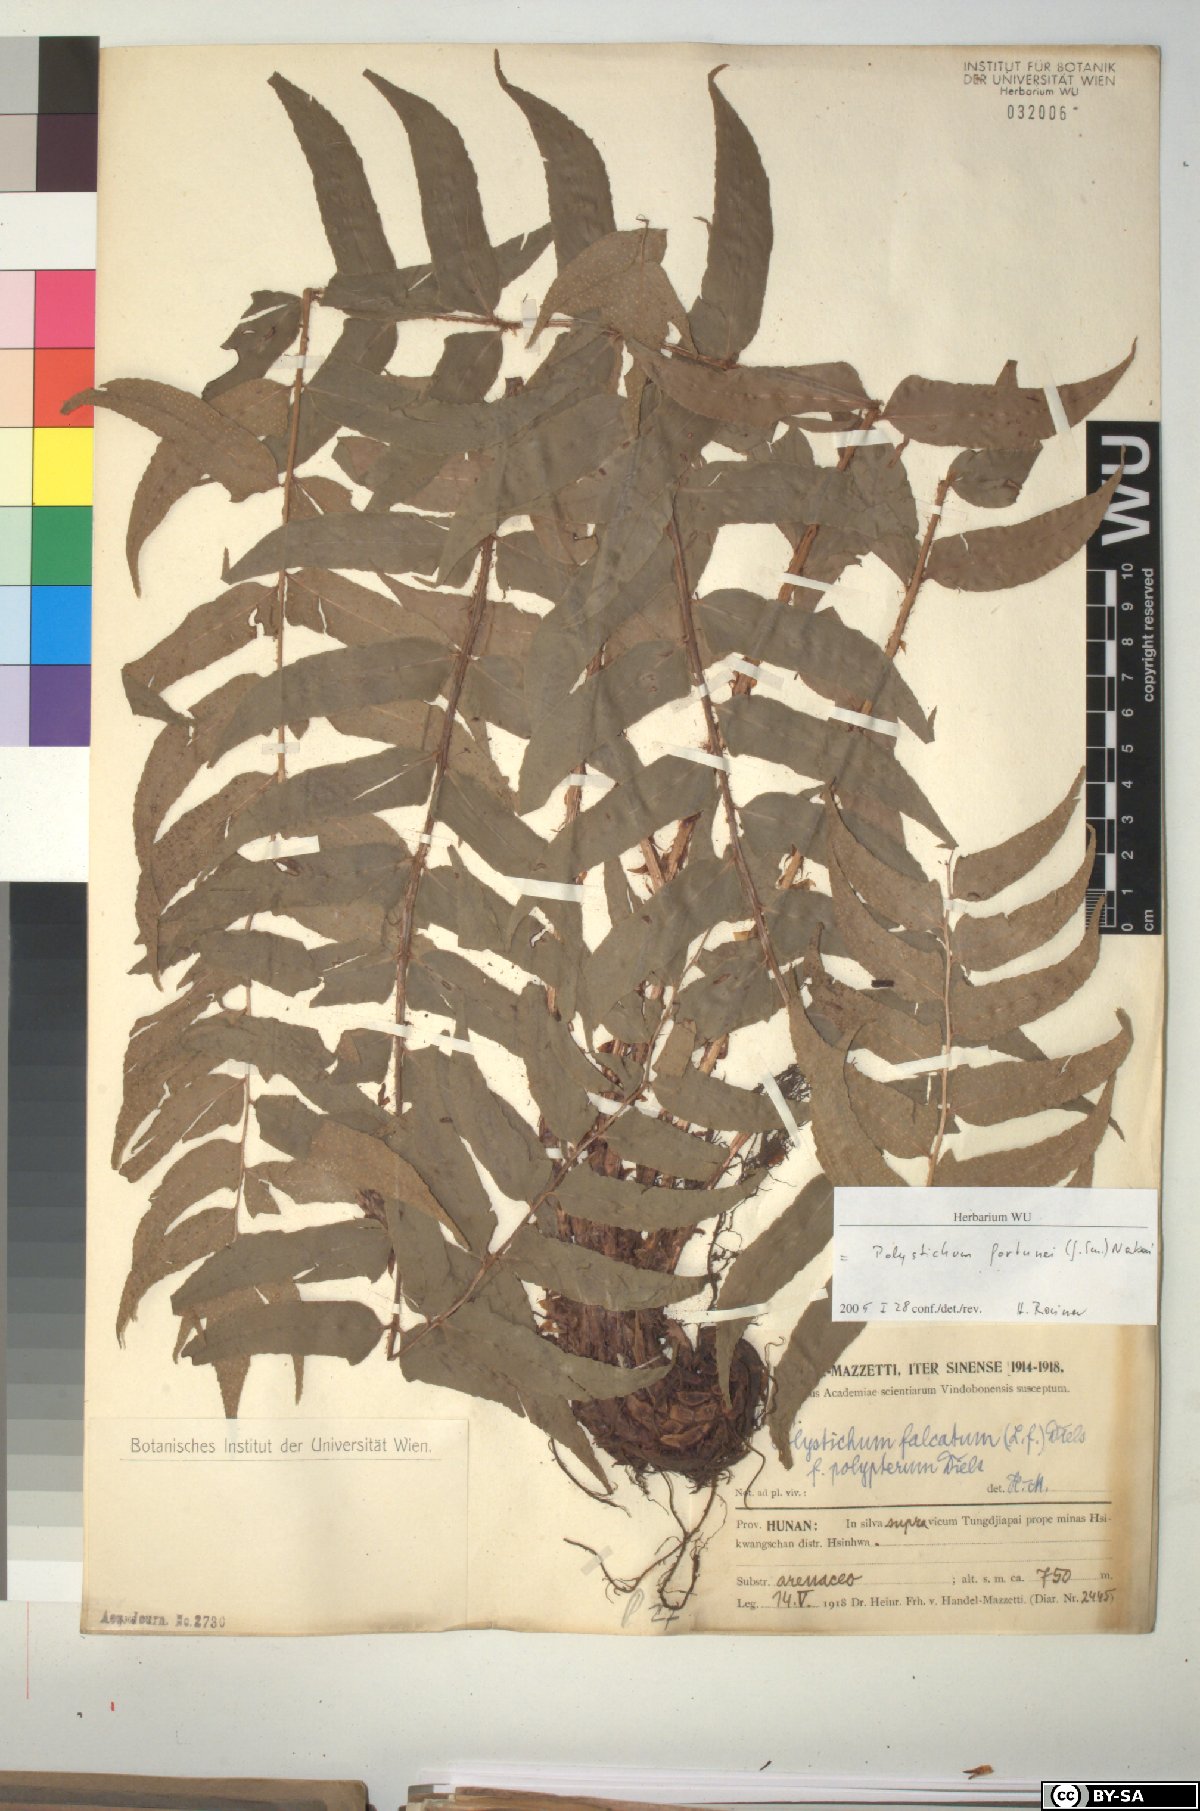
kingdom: Plantae
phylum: Tracheophyta
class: Polypodiopsida
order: Polypodiales
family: Dryopteridaceae
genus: Cyrtomium
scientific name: Cyrtomium fortunei
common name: Asian netvein hollyfern
